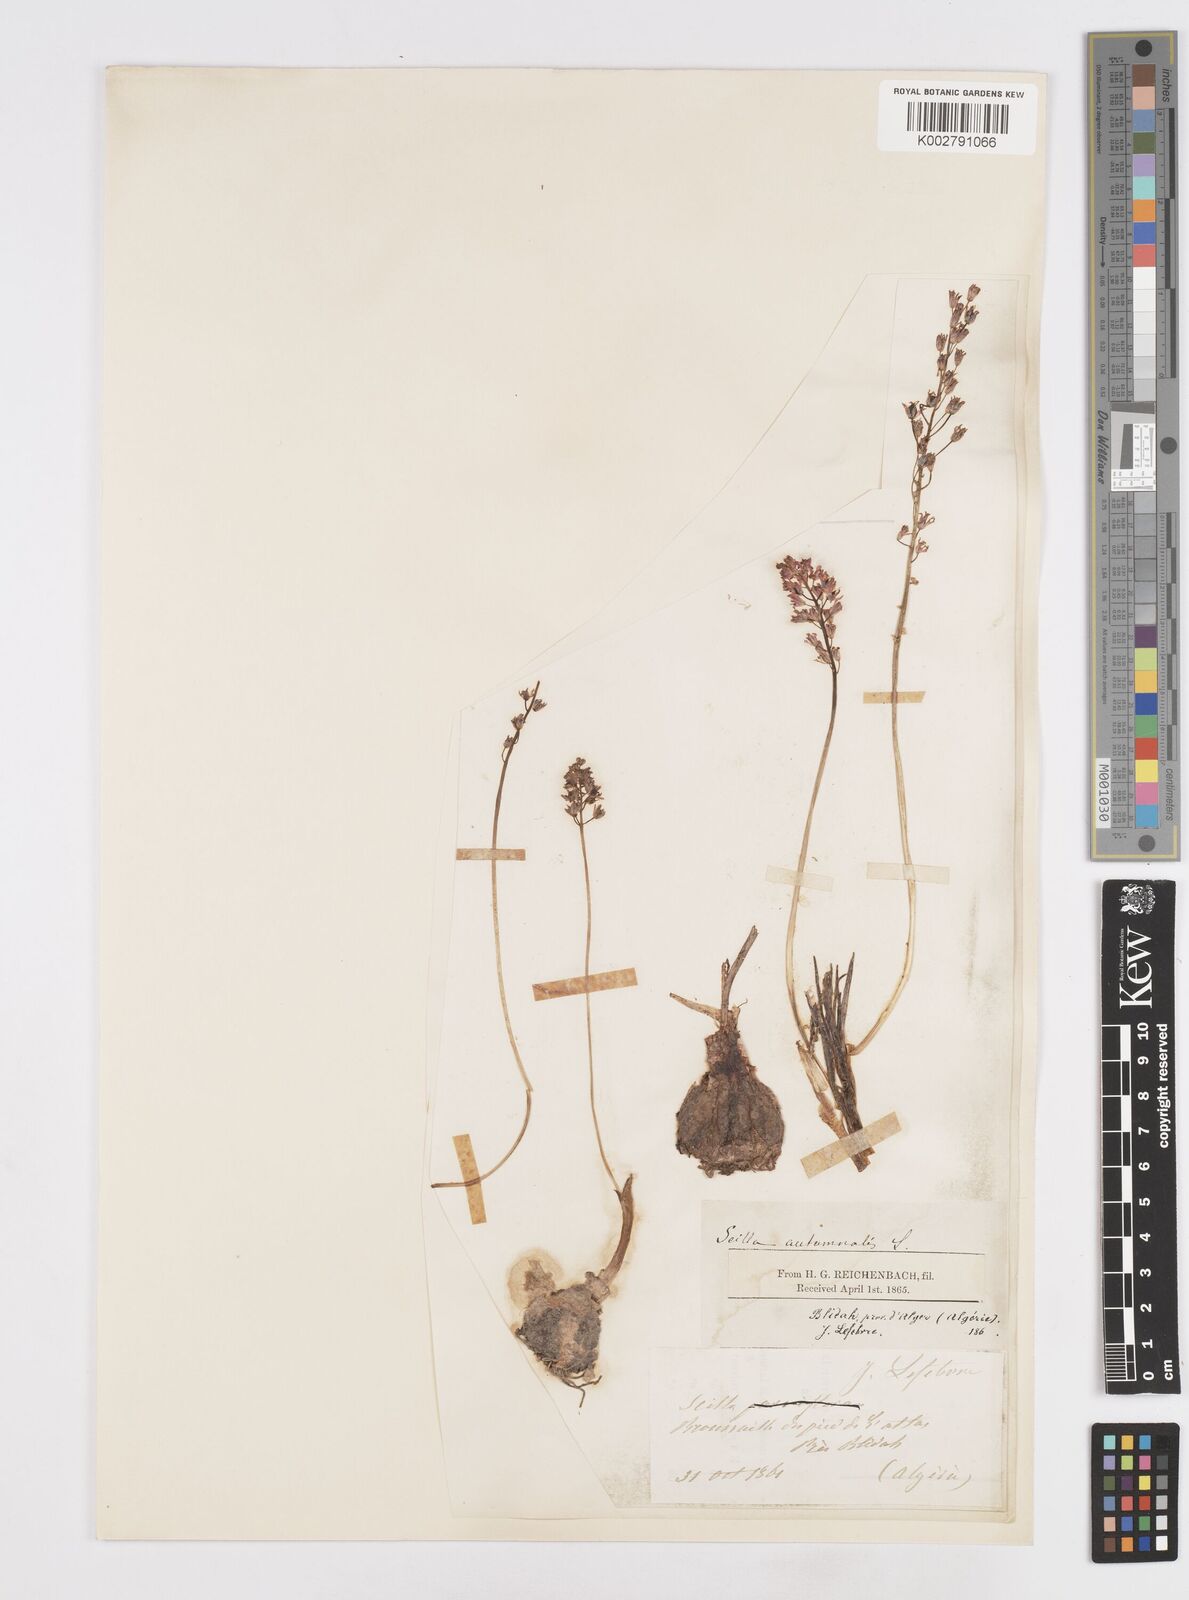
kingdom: Plantae
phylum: Tracheophyta
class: Liliopsida
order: Asparagales
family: Asparagaceae
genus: Prospero
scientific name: Prospero autumnale
